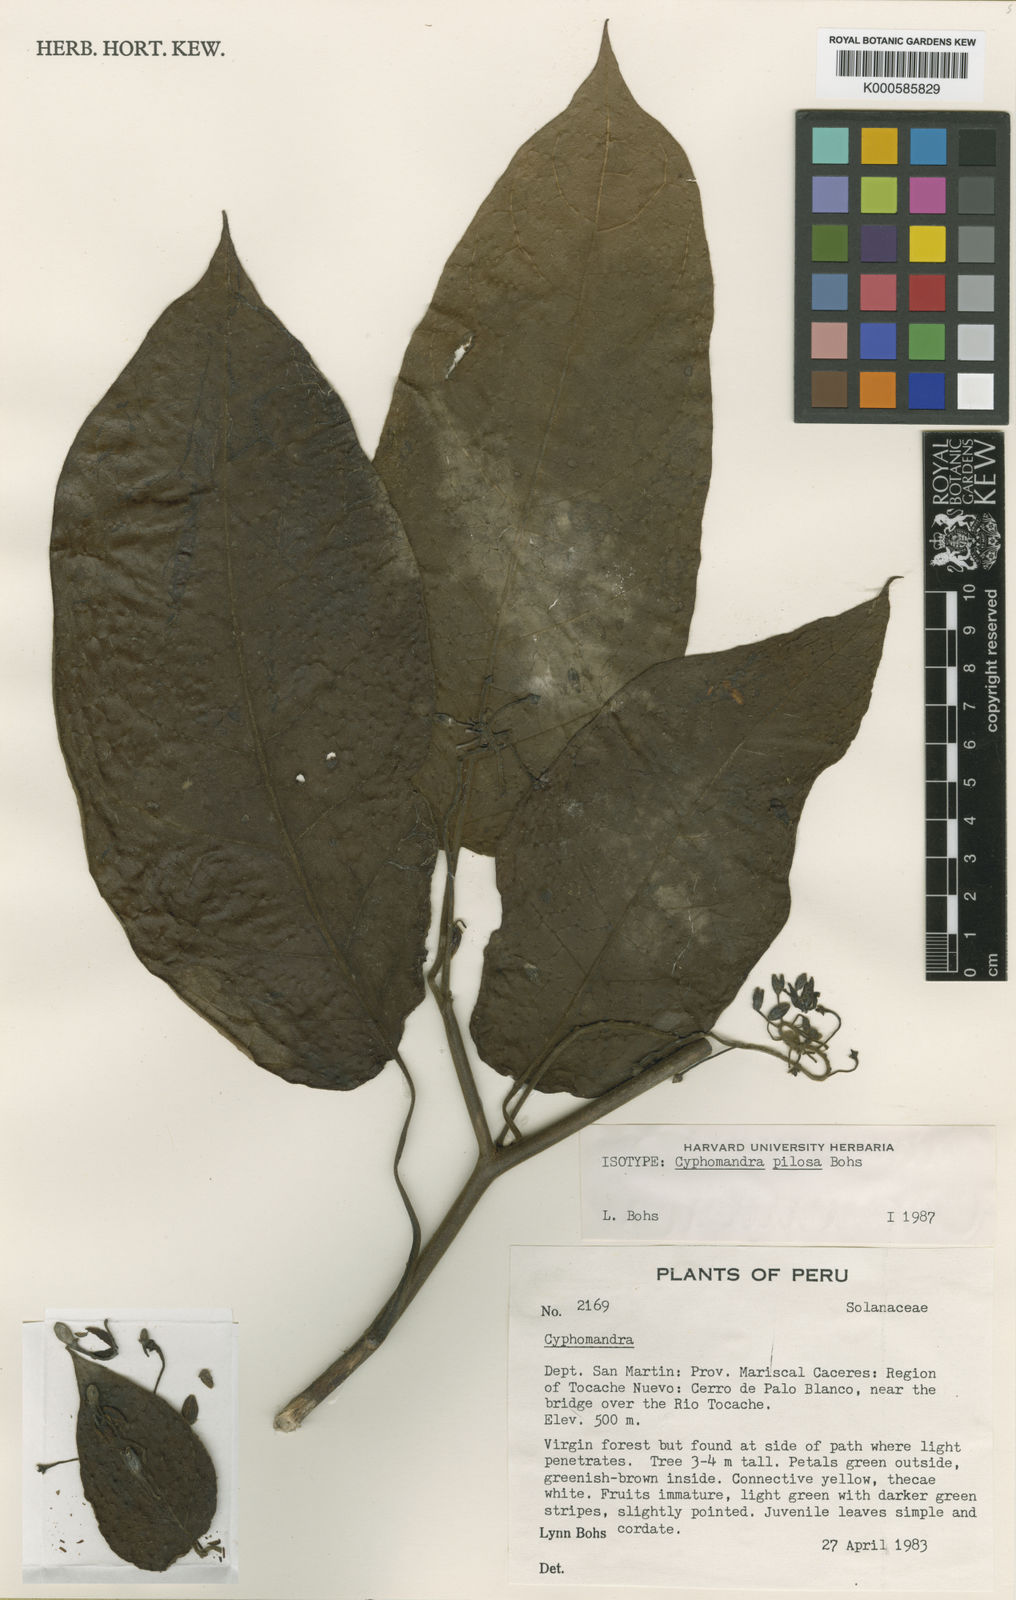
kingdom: Plantae
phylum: Tracheophyta
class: Magnoliopsida
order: Solanales
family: Solanaceae
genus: Solanum
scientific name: Solanum calidum
